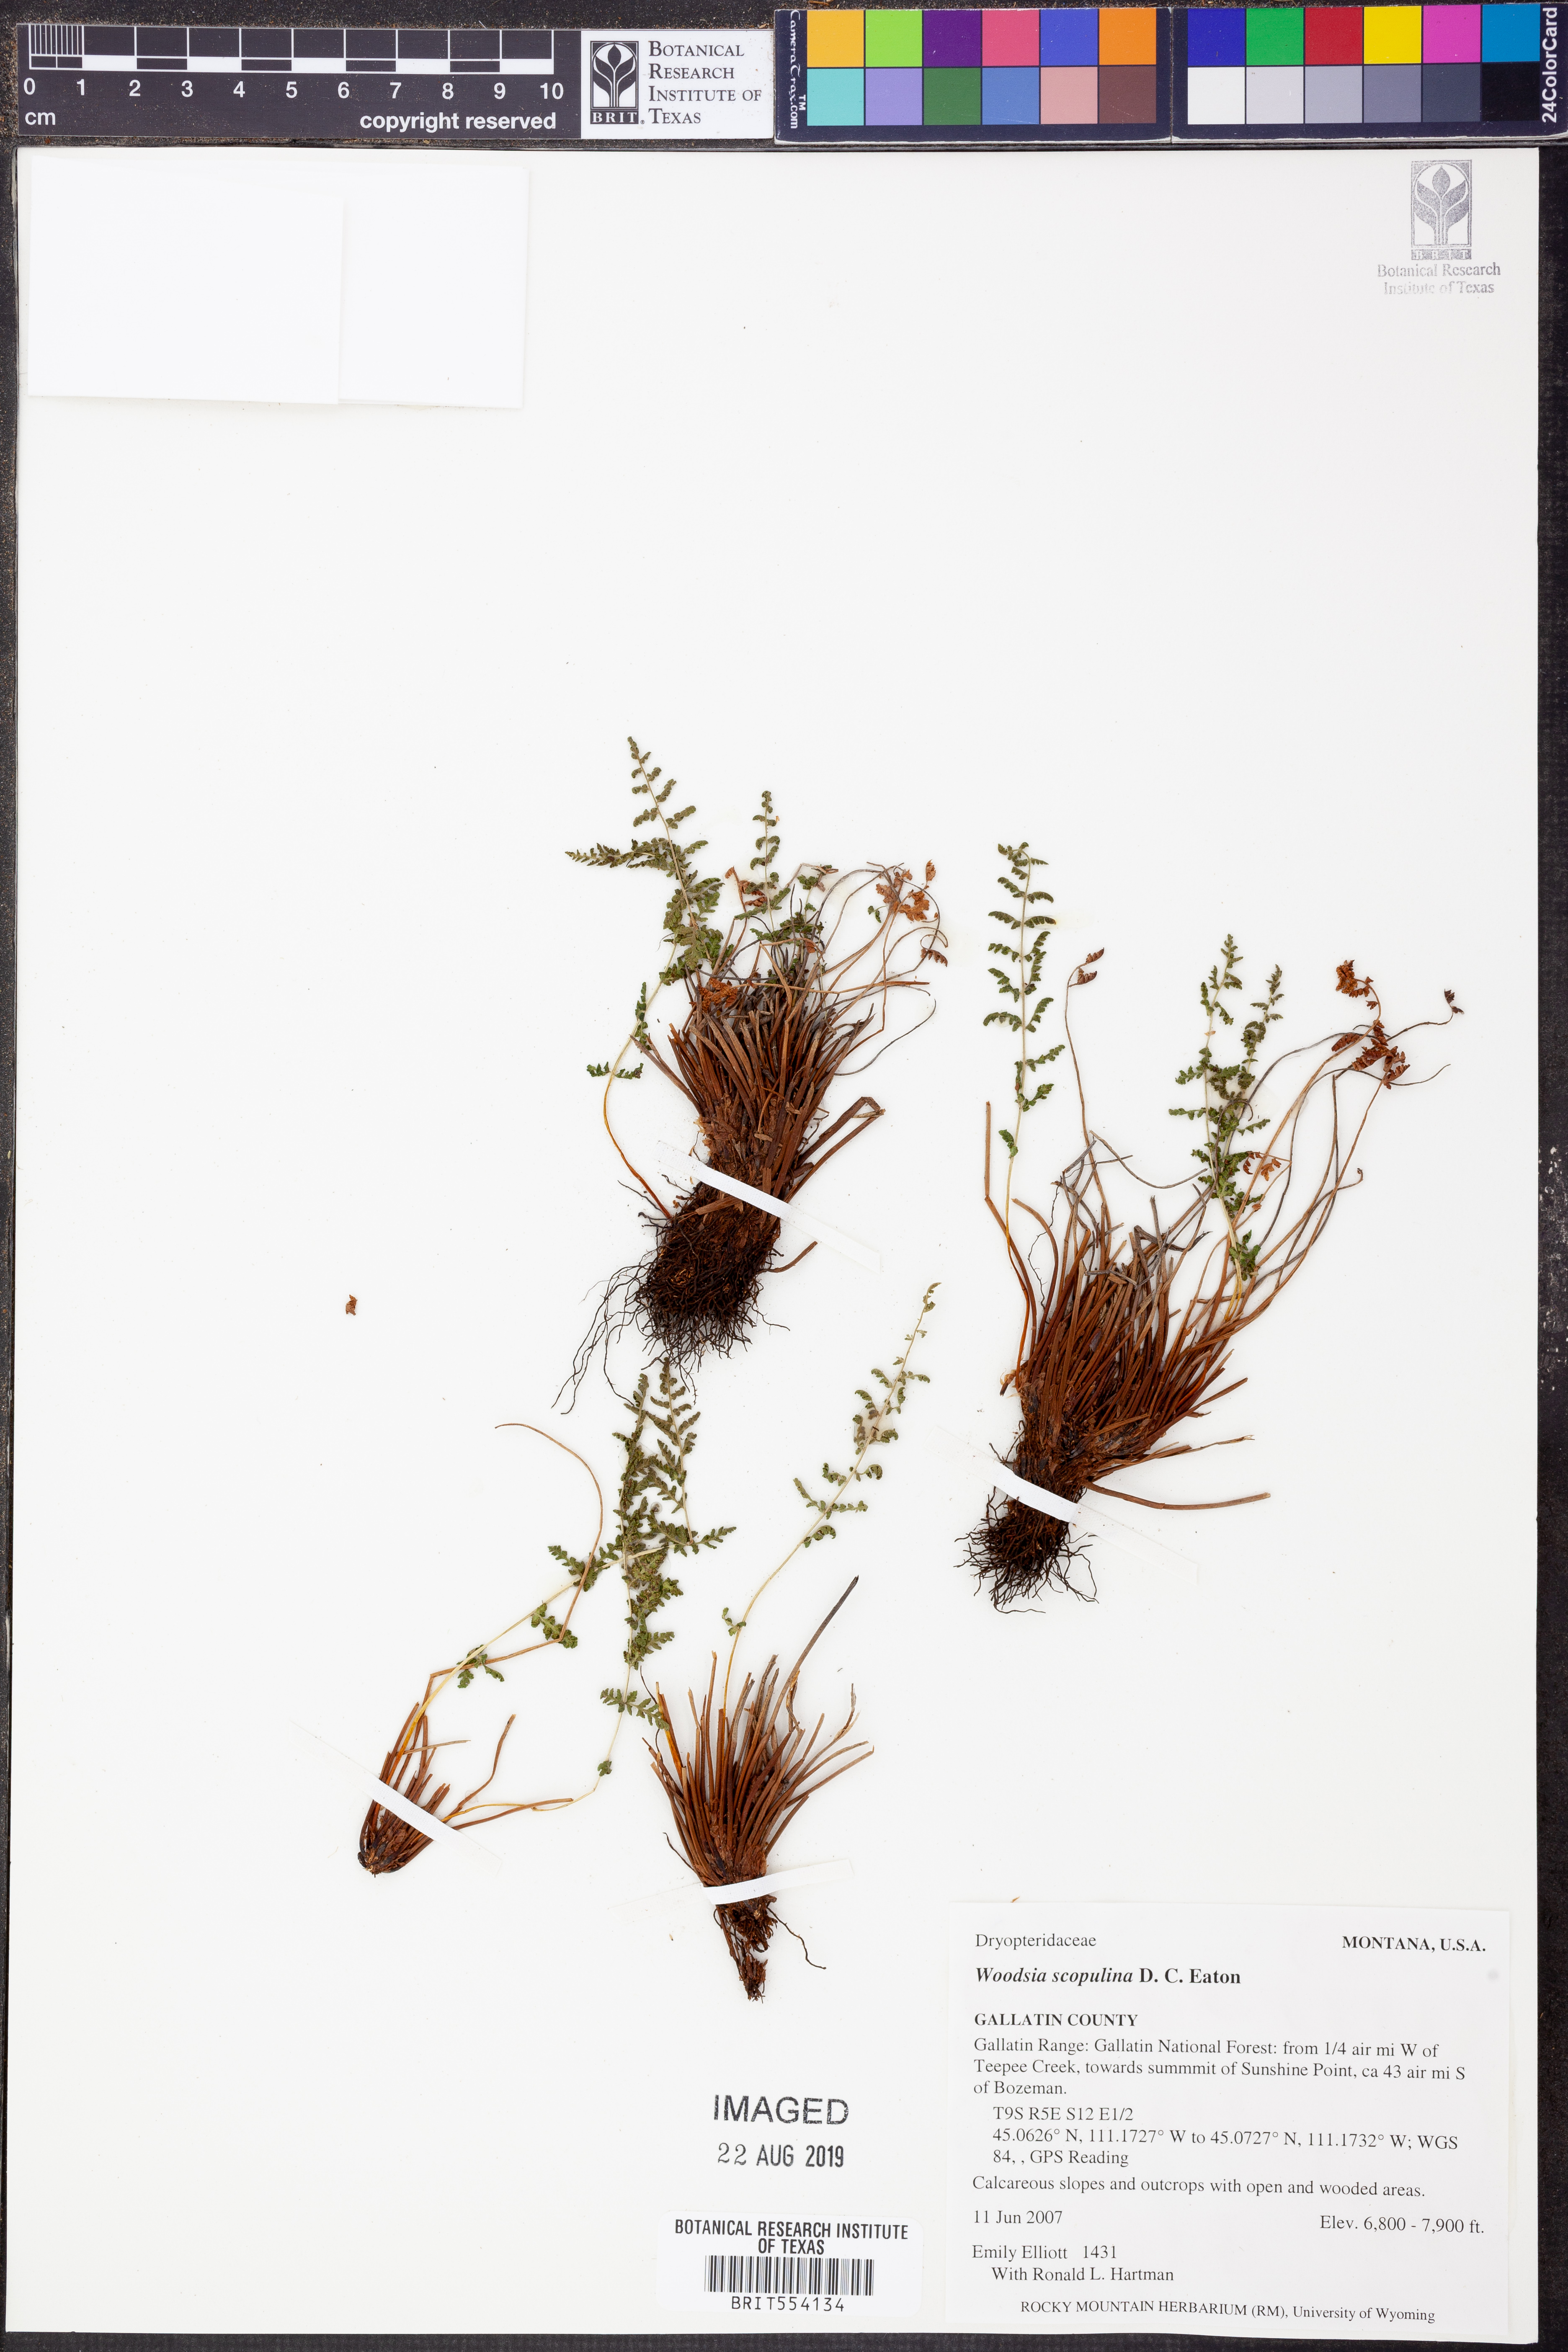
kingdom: Plantae
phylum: Tracheophyta
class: Polypodiopsida
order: Polypodiales
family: Woodsiaceae
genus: Physematium
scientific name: Physematium scopulinum
